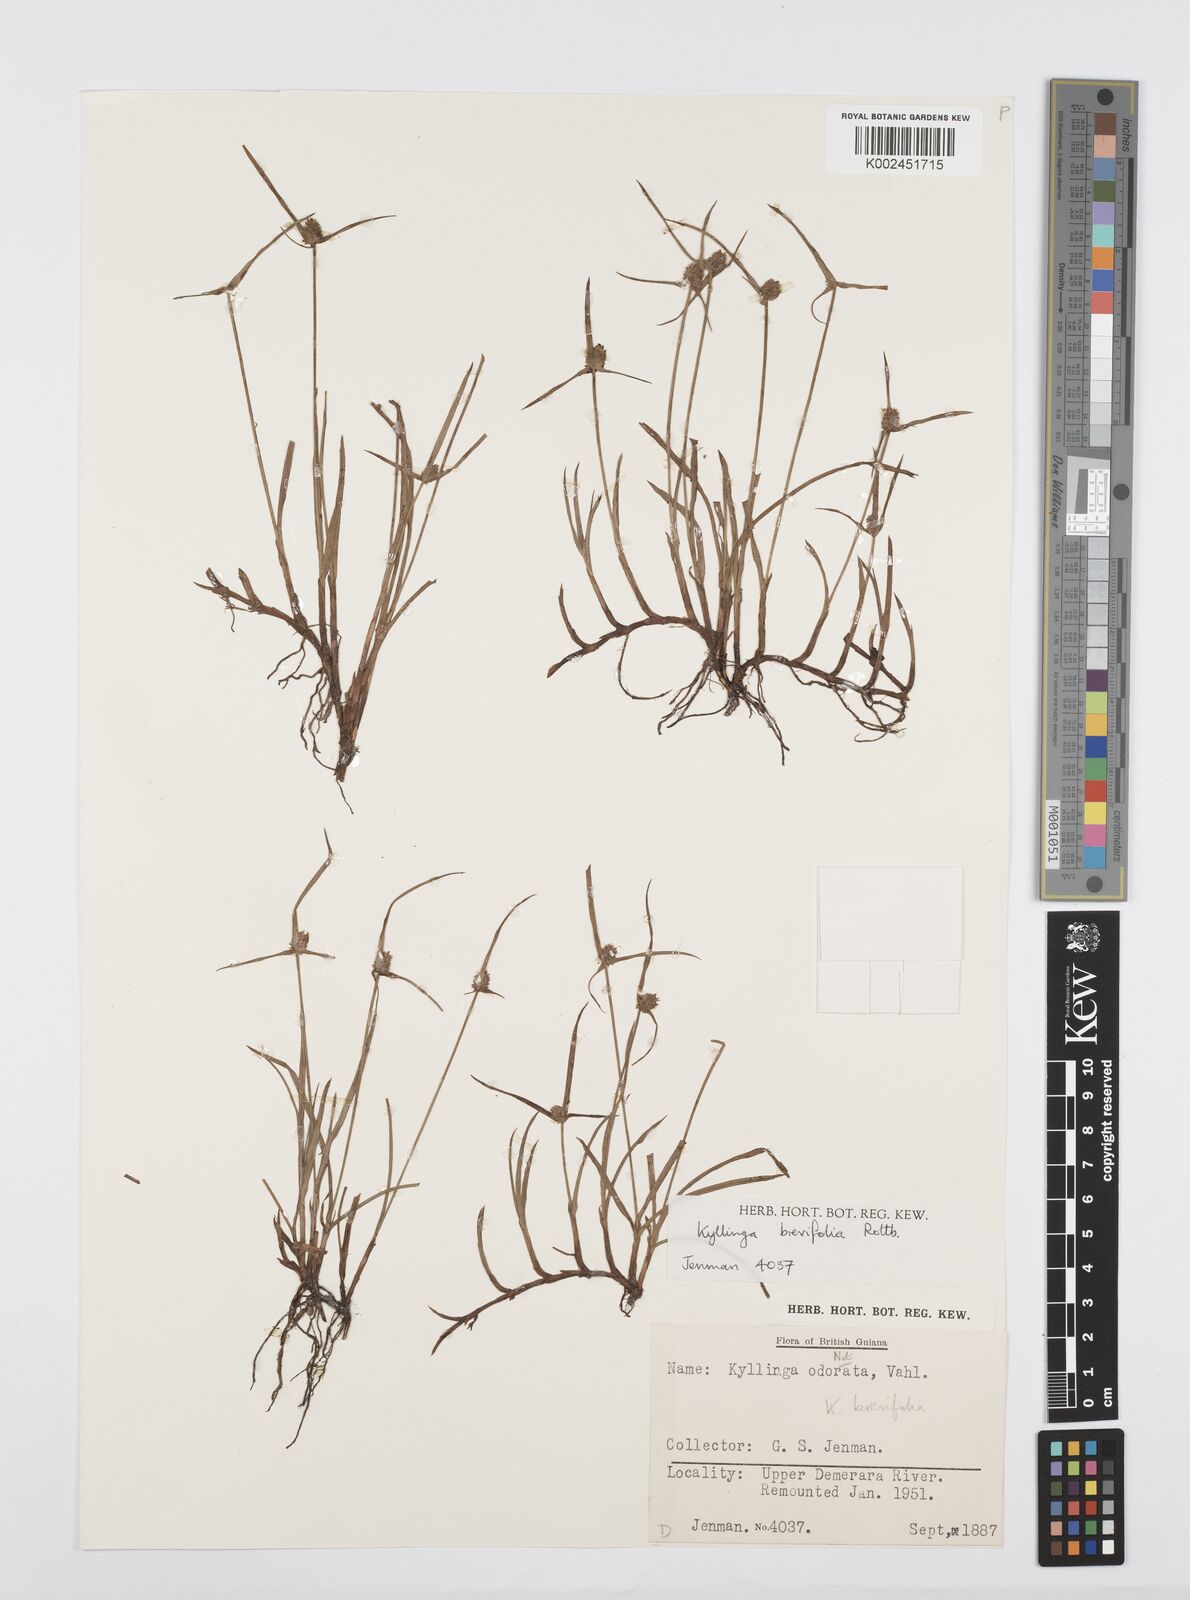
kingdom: Plantae
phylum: Tracheophyta
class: Liliopsida
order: Poales
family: Cyperaceae
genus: Cyperus
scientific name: Cyperus brevifolius
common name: Globe kyllinga
